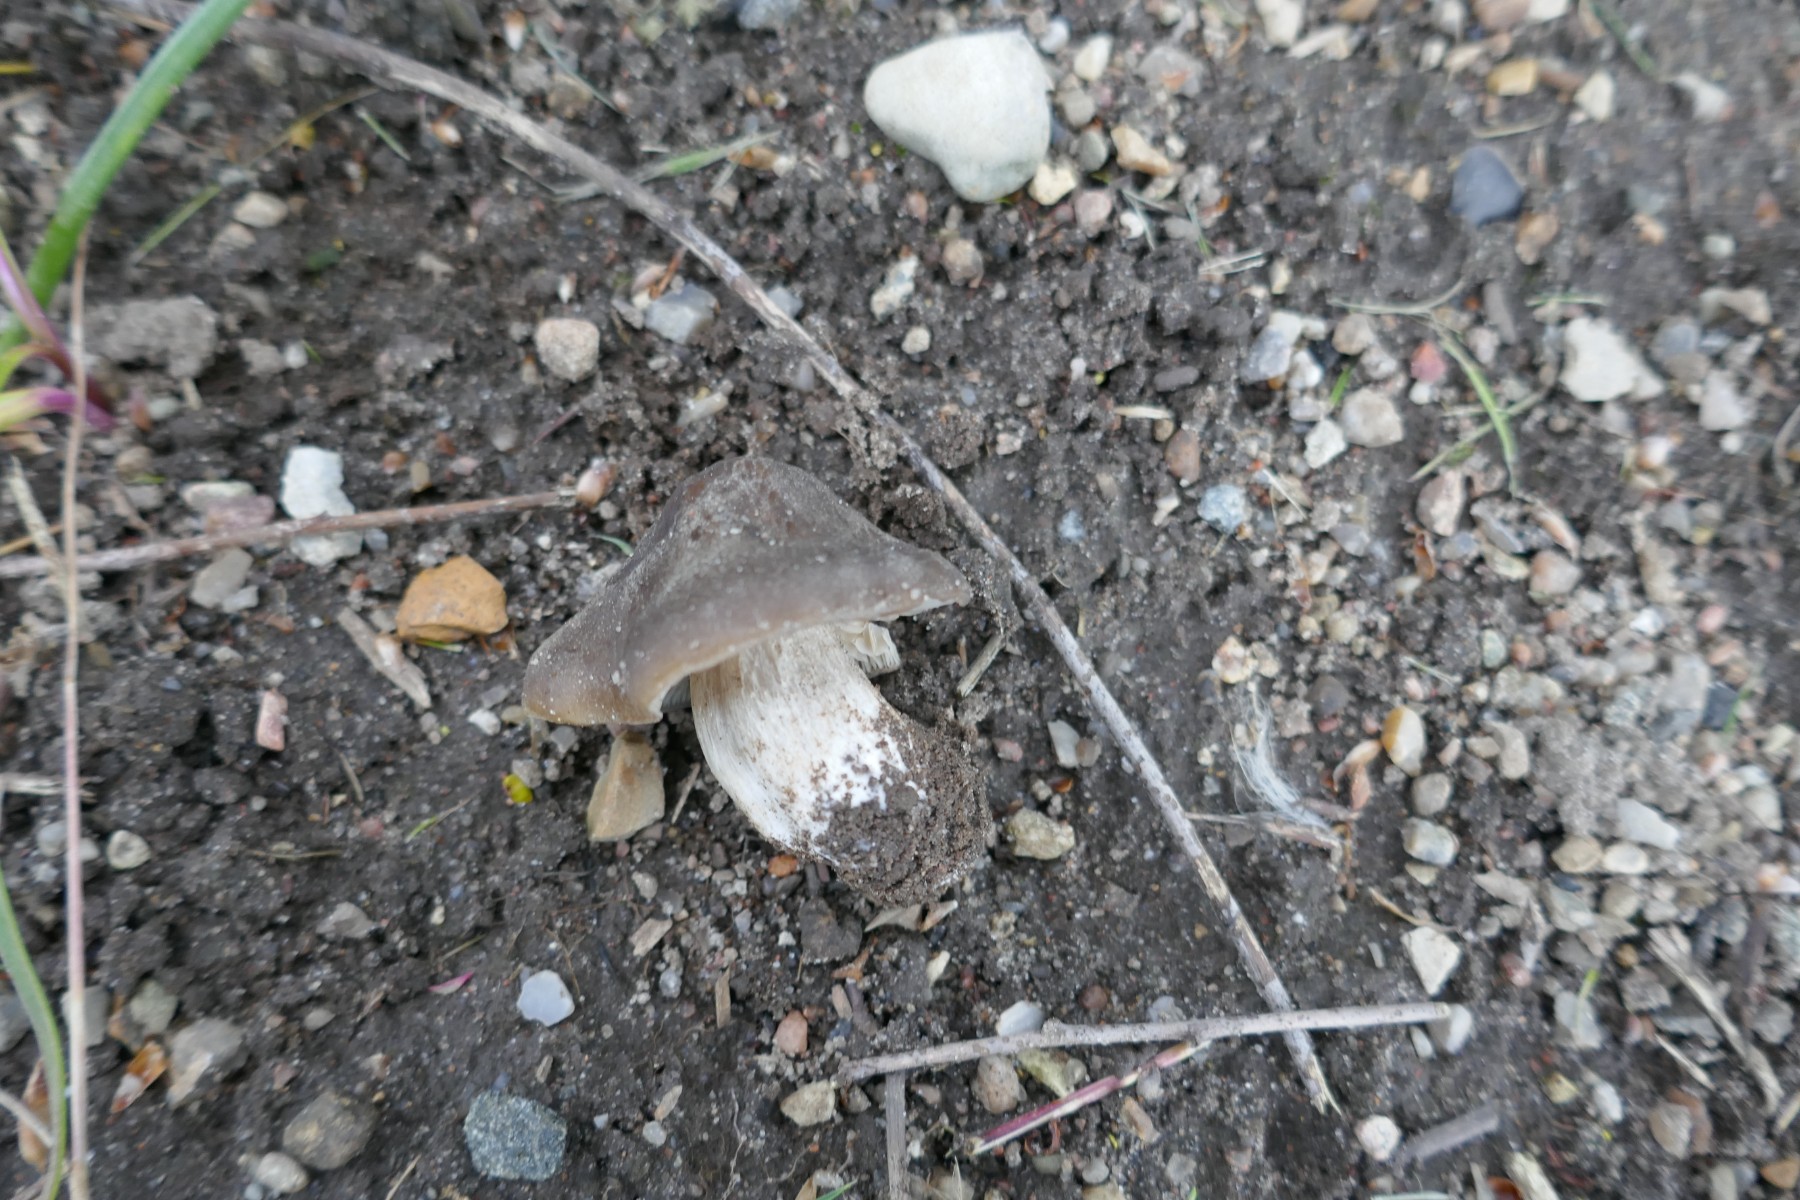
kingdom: Fungi
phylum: Basidiomycota
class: Agaricomycetes
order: Agaricales
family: Entolomataceae
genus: Entoloma
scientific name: Entoloma clypeatum
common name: flammet rødblad
